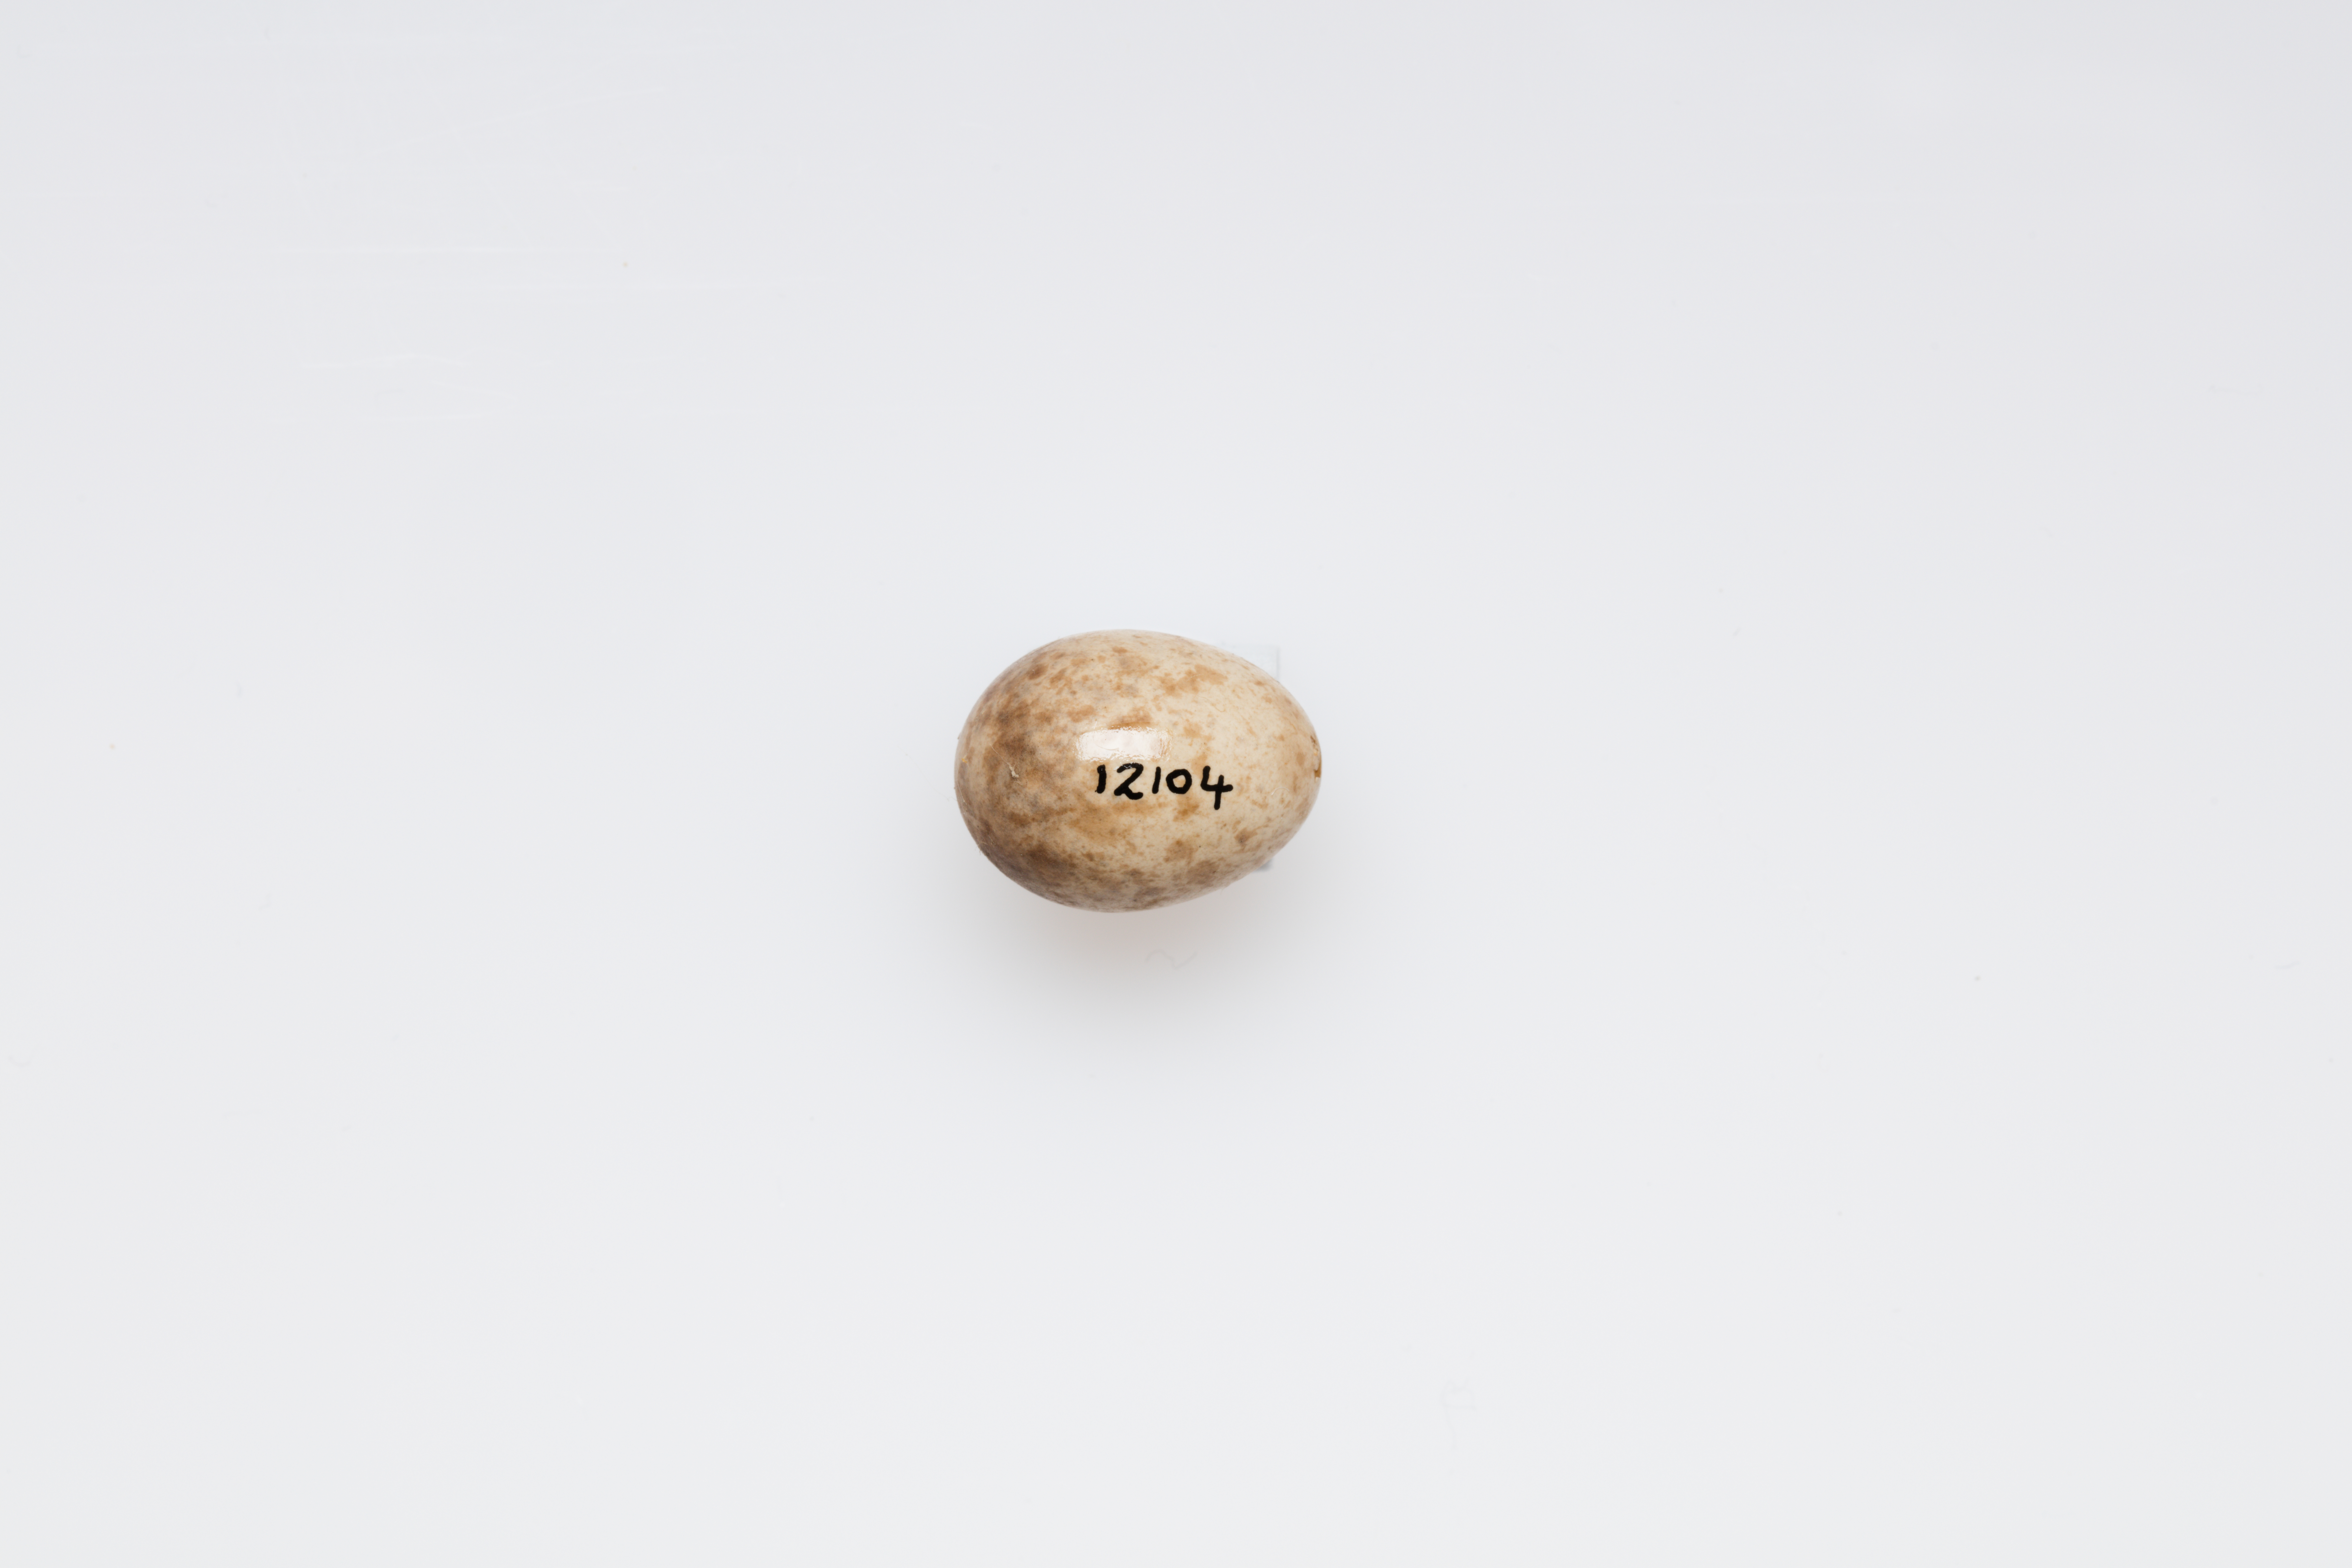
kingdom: Animalia
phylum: Chordata
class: Aves
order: Passeriformes
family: Nectariniidae
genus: Cinnyris
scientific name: Cinnyris jugularis
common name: Olive-backed sunbird
